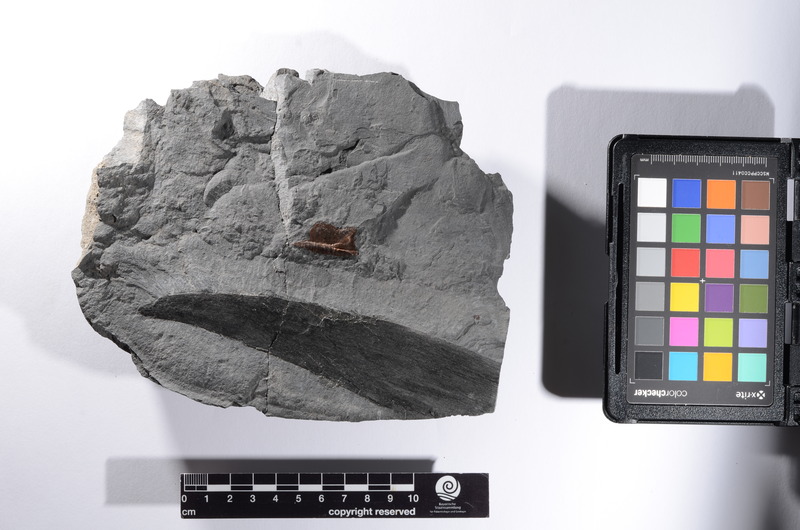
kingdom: Animalia
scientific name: Animalia
